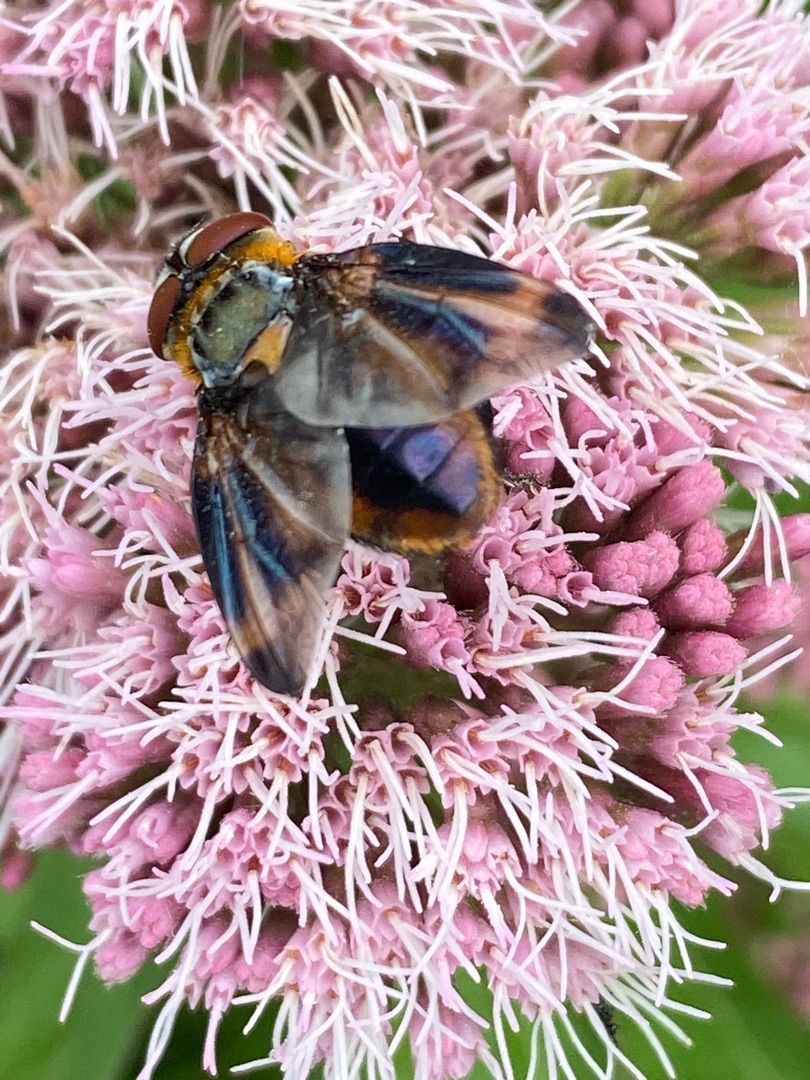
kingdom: Animalia
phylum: Arthropoda
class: Insecta
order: Diptera
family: Tachinidae
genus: Phasia
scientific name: Phasia hemiptera
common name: Blåvinget pragtsnylteflue
